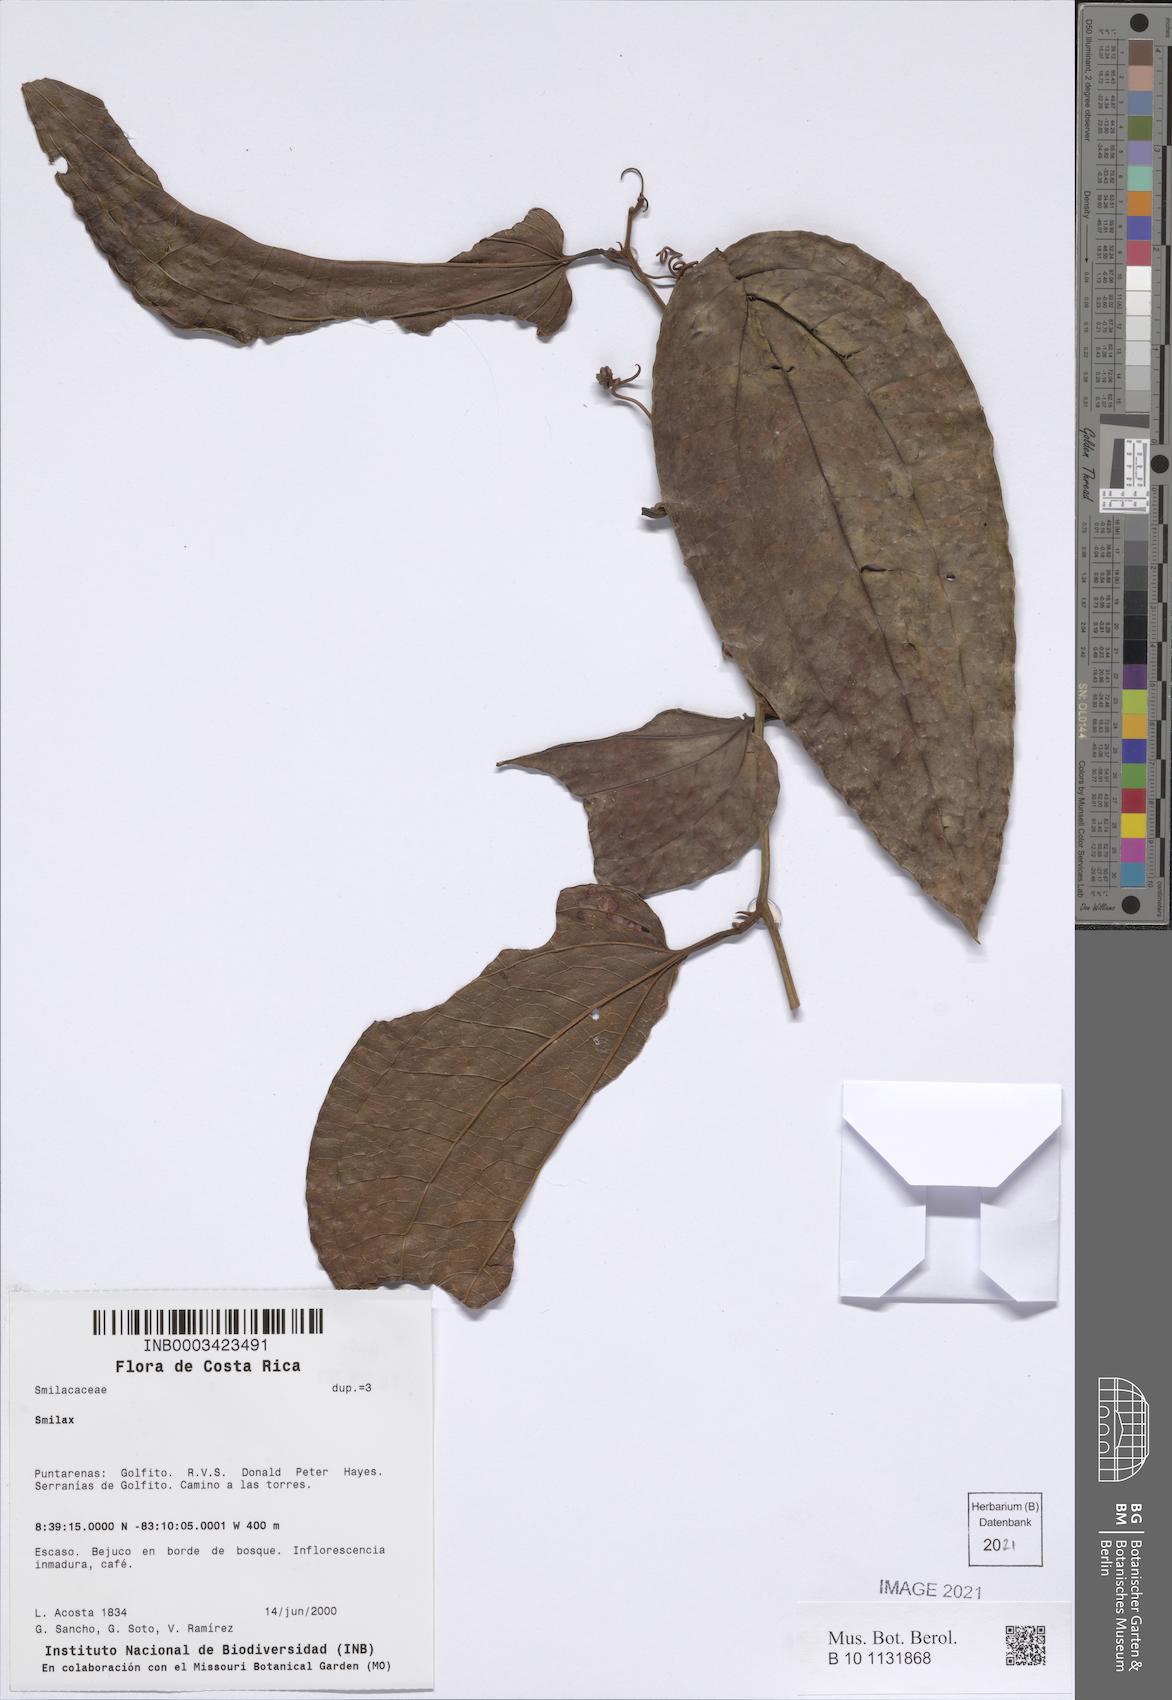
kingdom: Plantae
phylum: Tracheophyta
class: Liliopsida
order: Liliales
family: Smilacaceae
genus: Smilax
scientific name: Smilax
